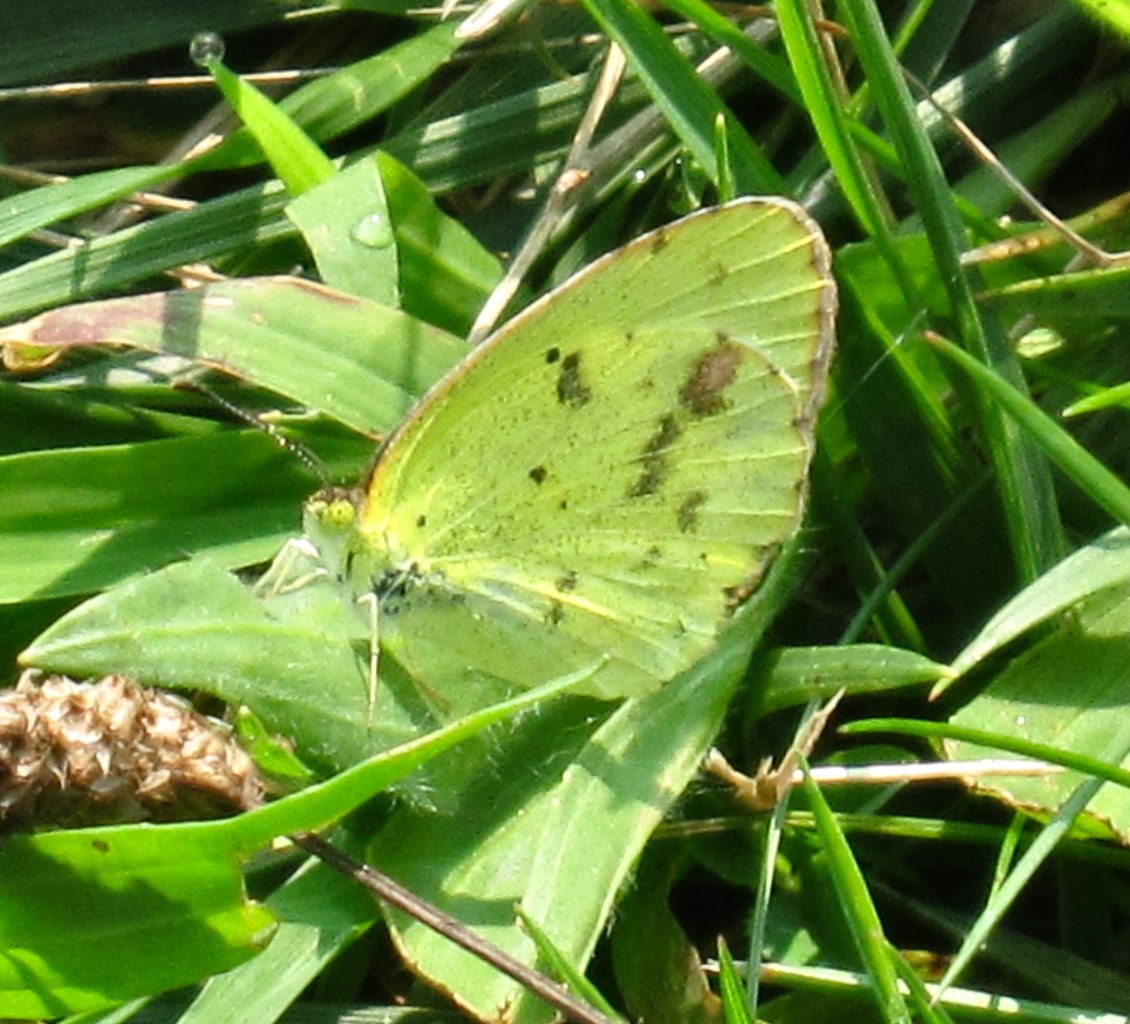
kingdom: Animalia
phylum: Arthropoda
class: Insecta
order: Lepidoptera
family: Pieridae
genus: Pyrisitia
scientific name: Pyrisitia lisa
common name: Little Yellow
